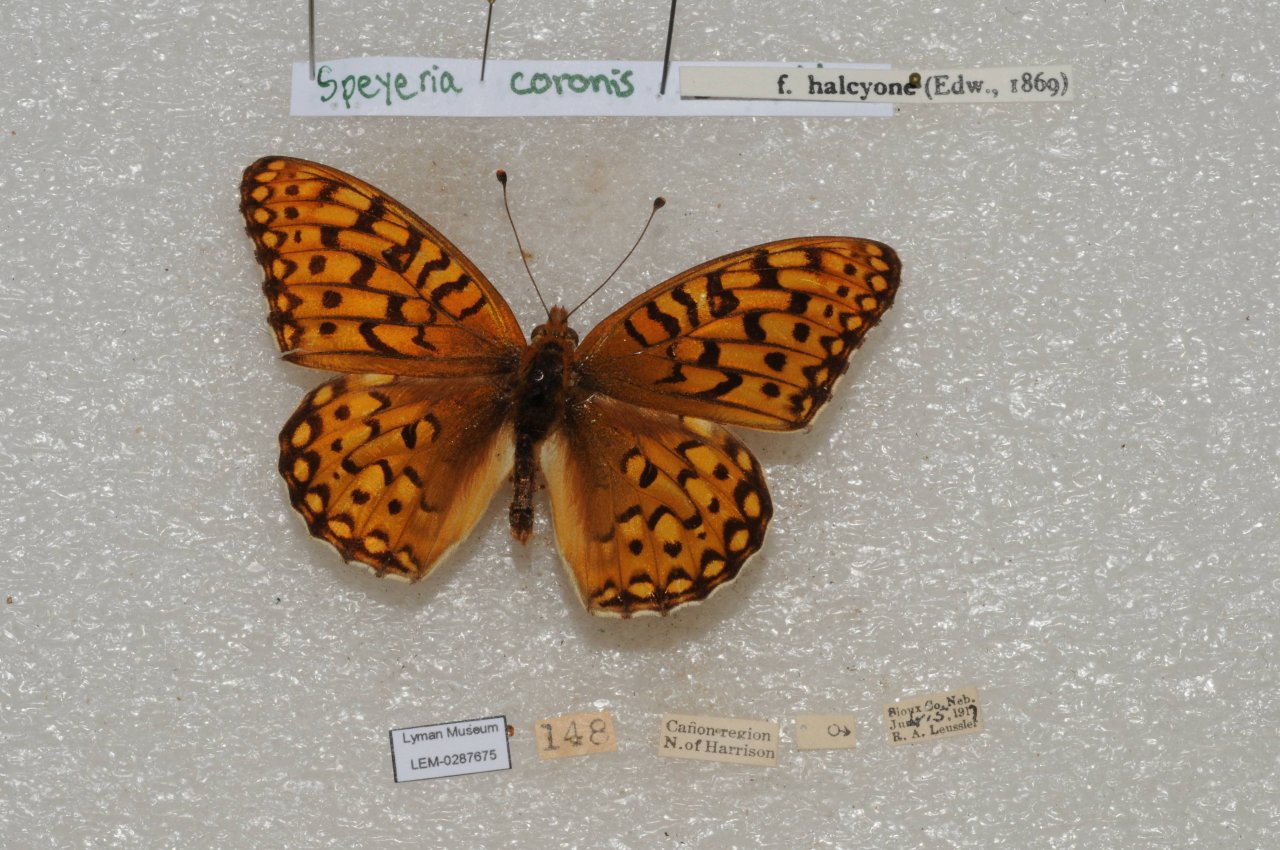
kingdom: Animalia
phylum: Arthropoda
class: Insecta
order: Lepidoptera
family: Nymphalidae
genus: Speyeria
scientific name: Speyeria coronis
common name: Coronis Fritillary
